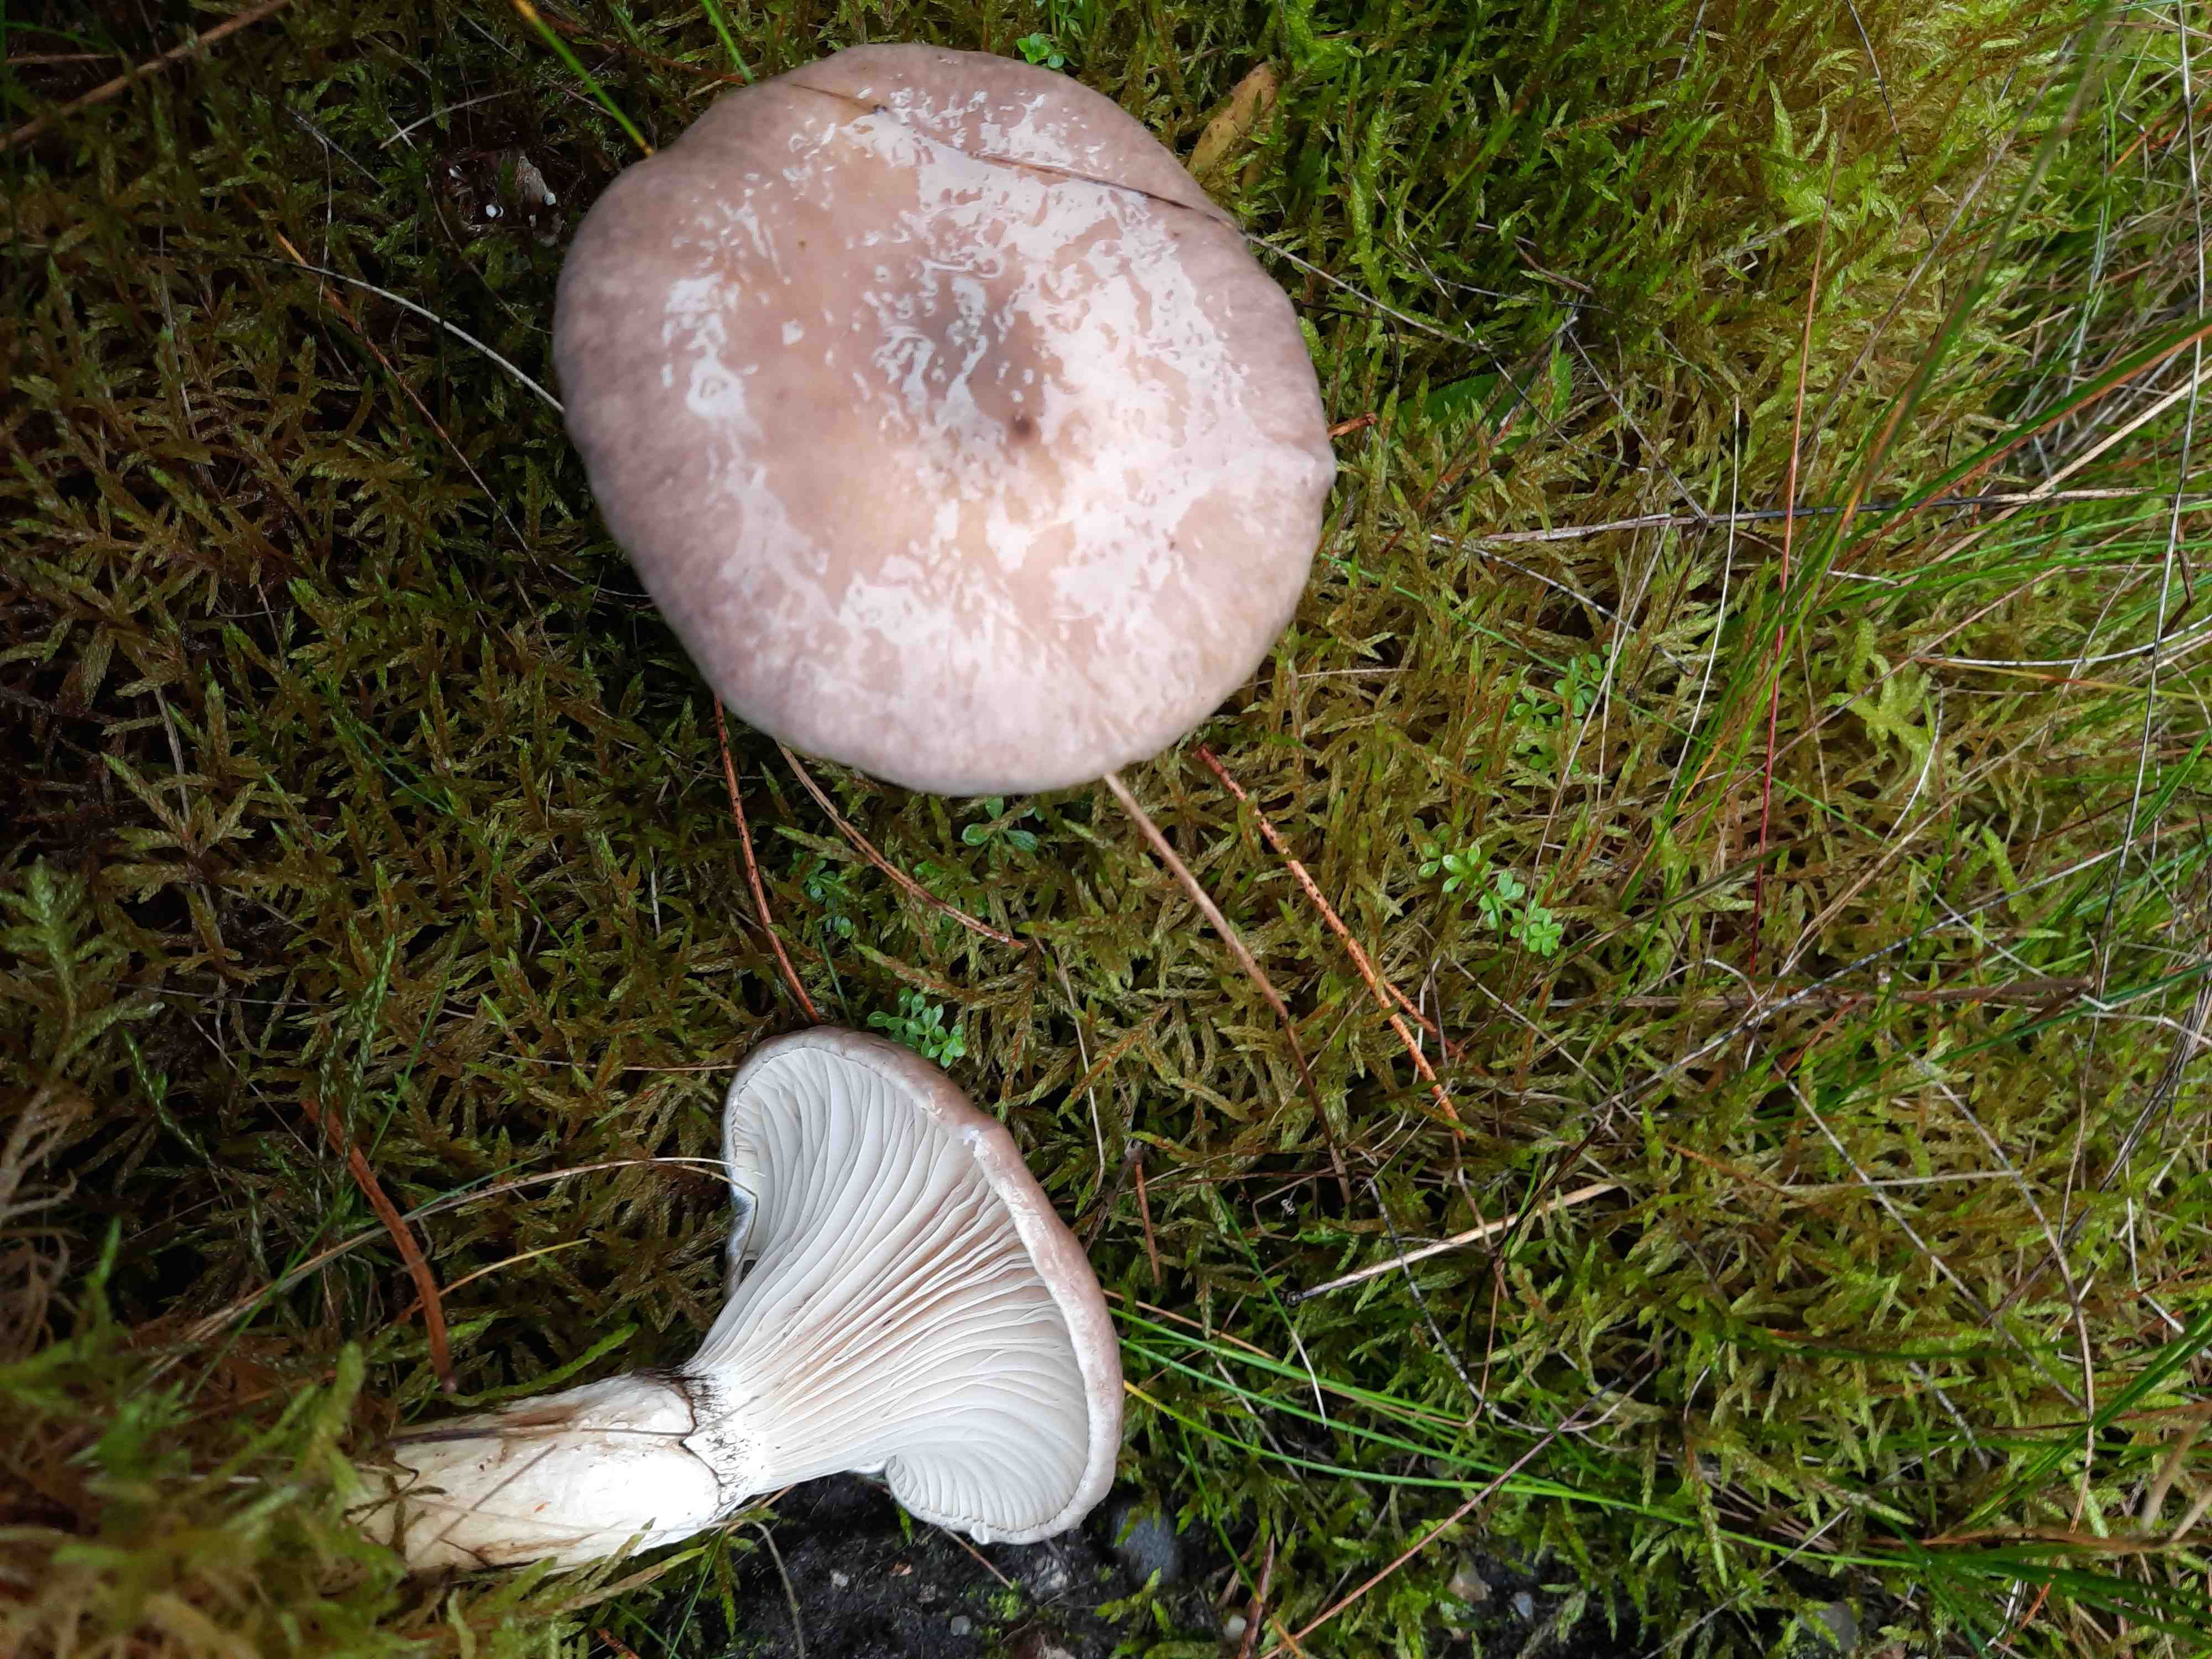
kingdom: Fungi
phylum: Basidiomycota
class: Agaricomycetes
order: Boletales
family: Gomphidiaceae
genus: Gomphidius
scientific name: Gomphidius glutinosus
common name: grå slimslør
